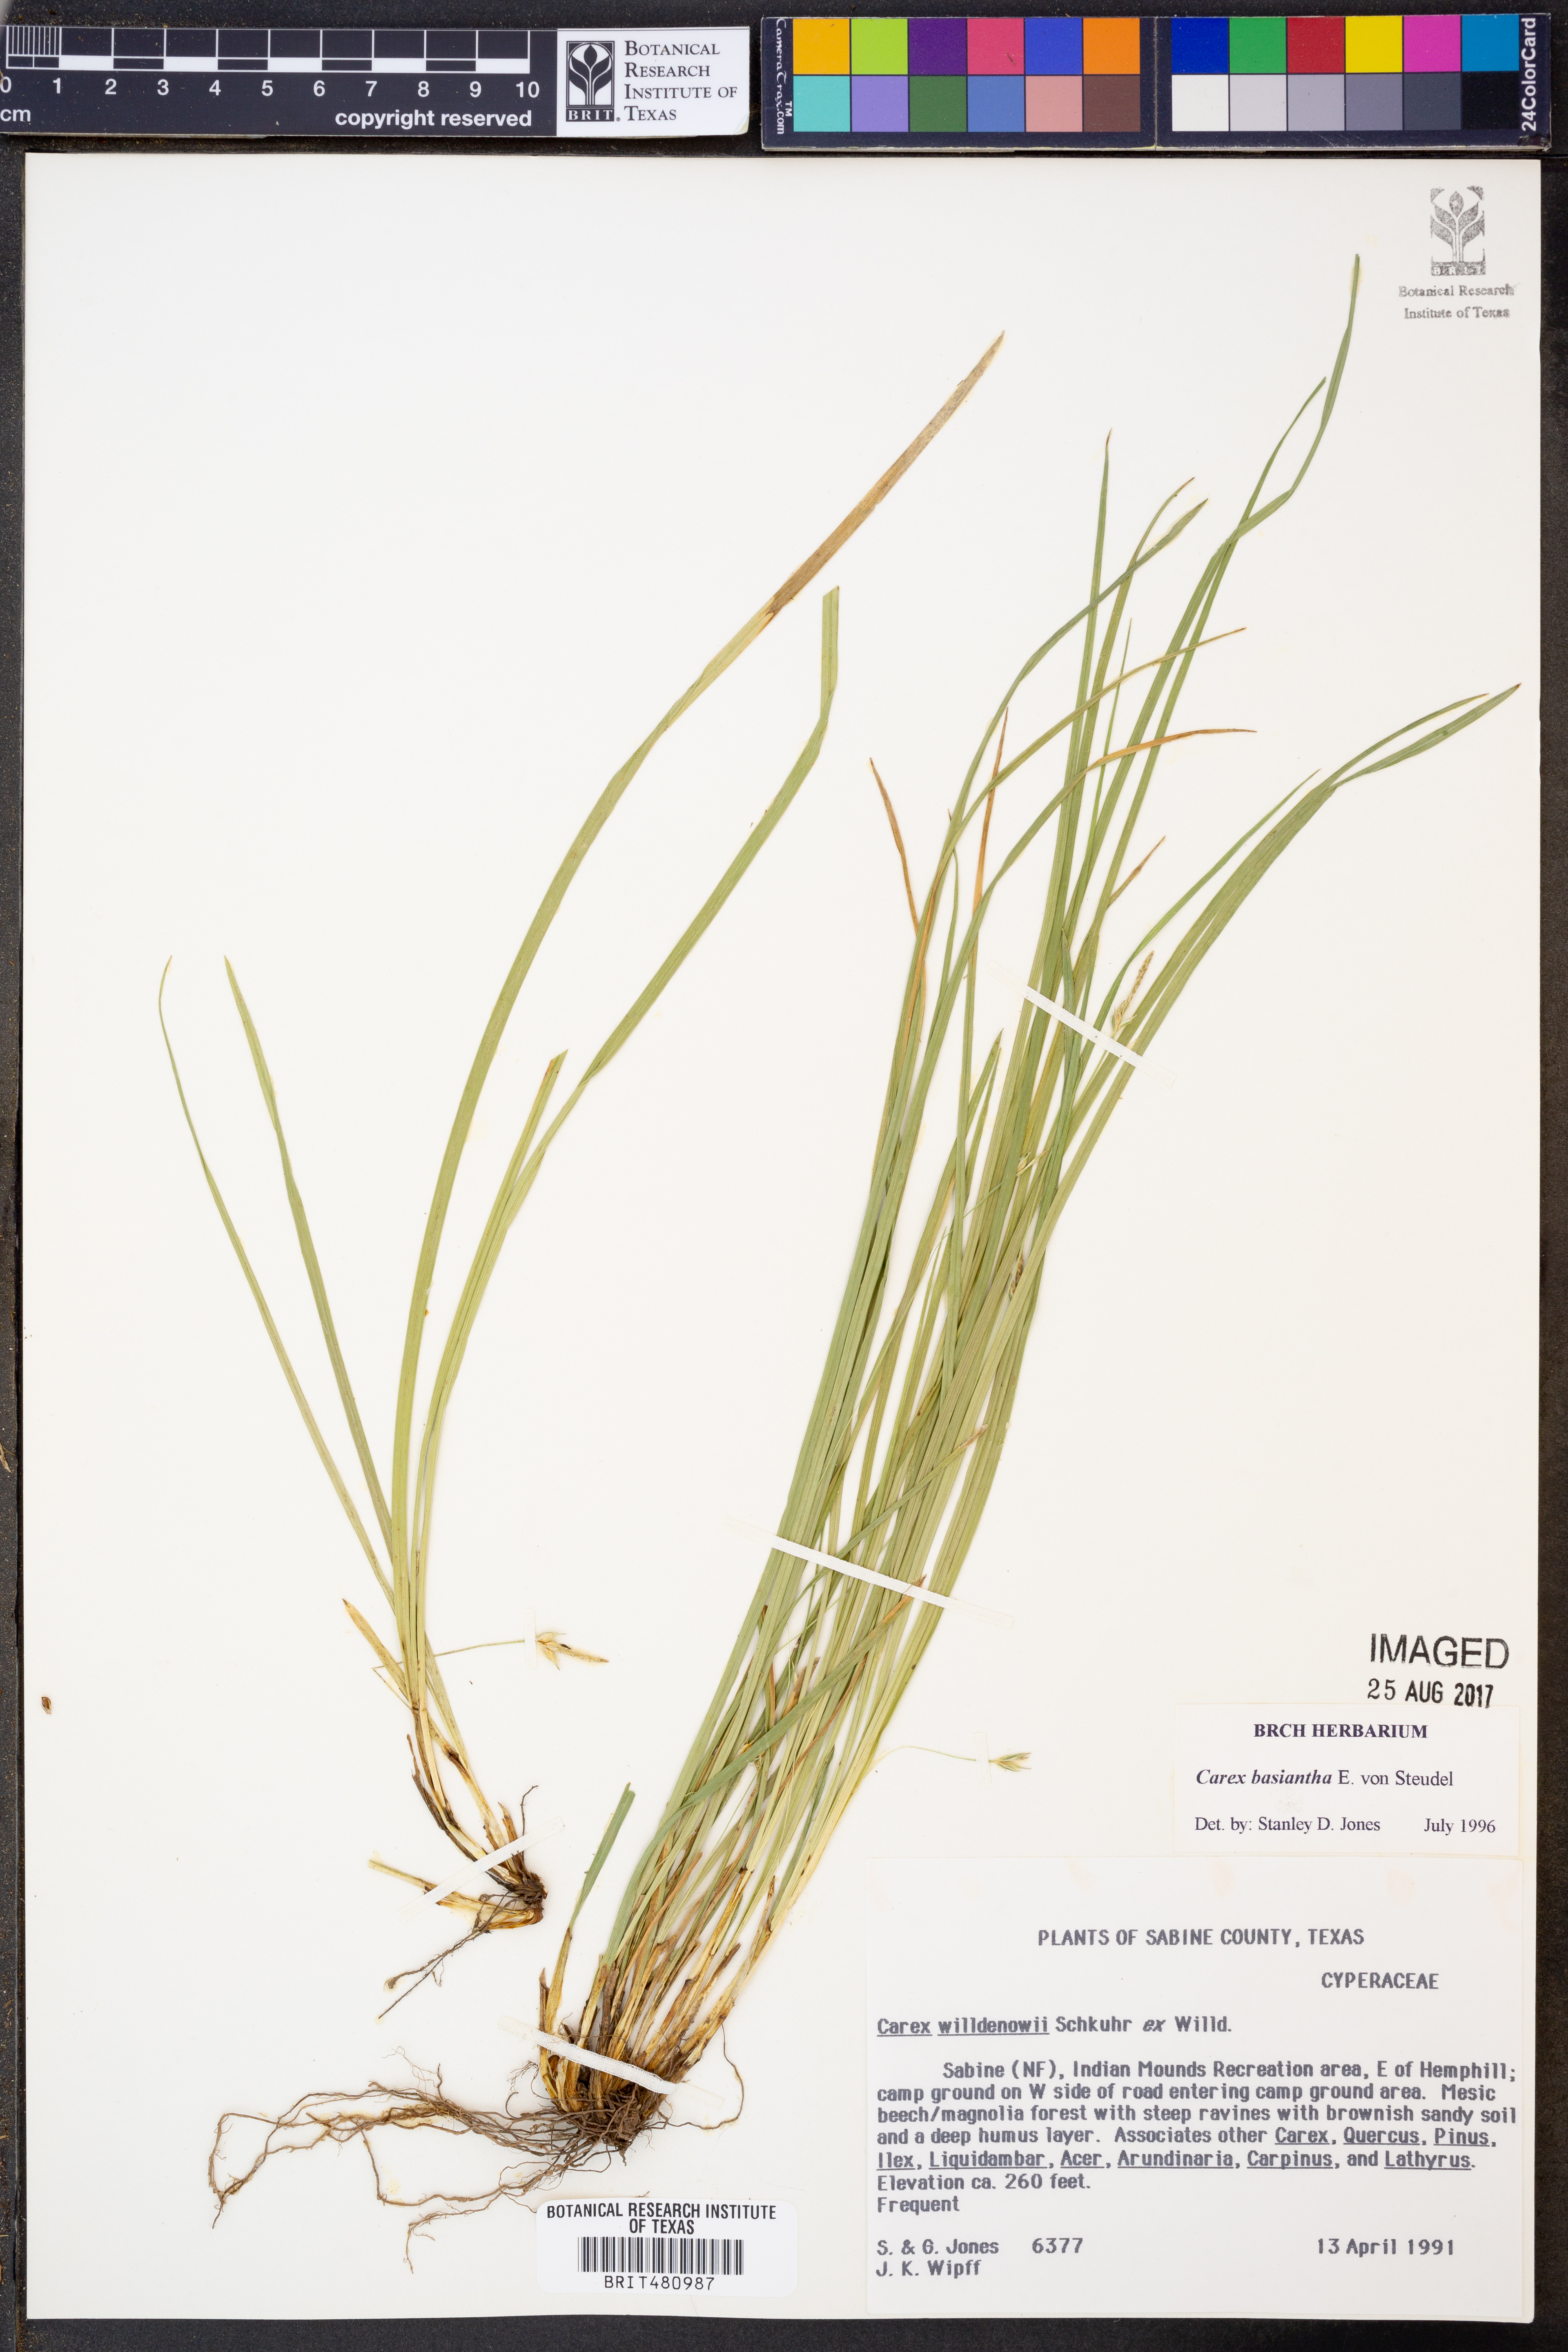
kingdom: Plantae
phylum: Tracheophyta
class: Liliopsida
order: Poales
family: Cyperaceae
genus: Carex
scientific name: Carex basiantha
